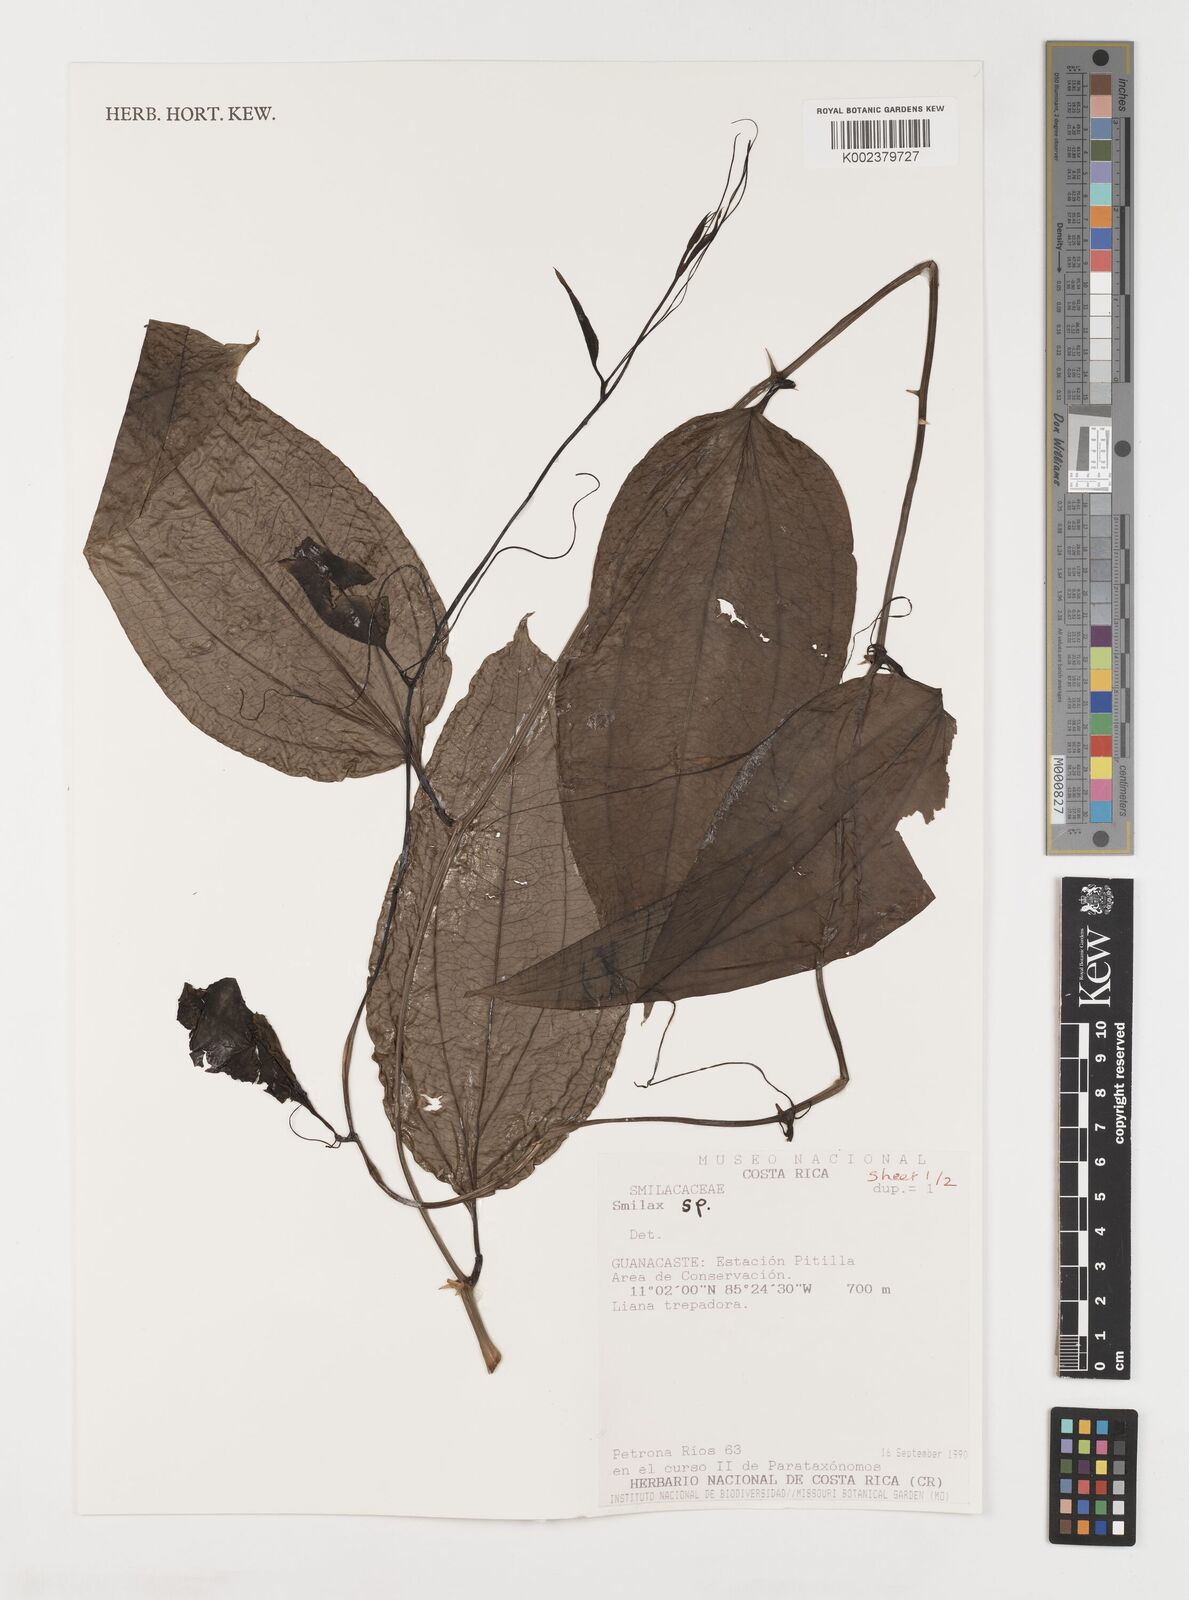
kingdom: Plantae
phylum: Tracheophyta
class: Liliopsida
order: Liliales
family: Smilacaceae
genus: Smilax
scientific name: Smilax
